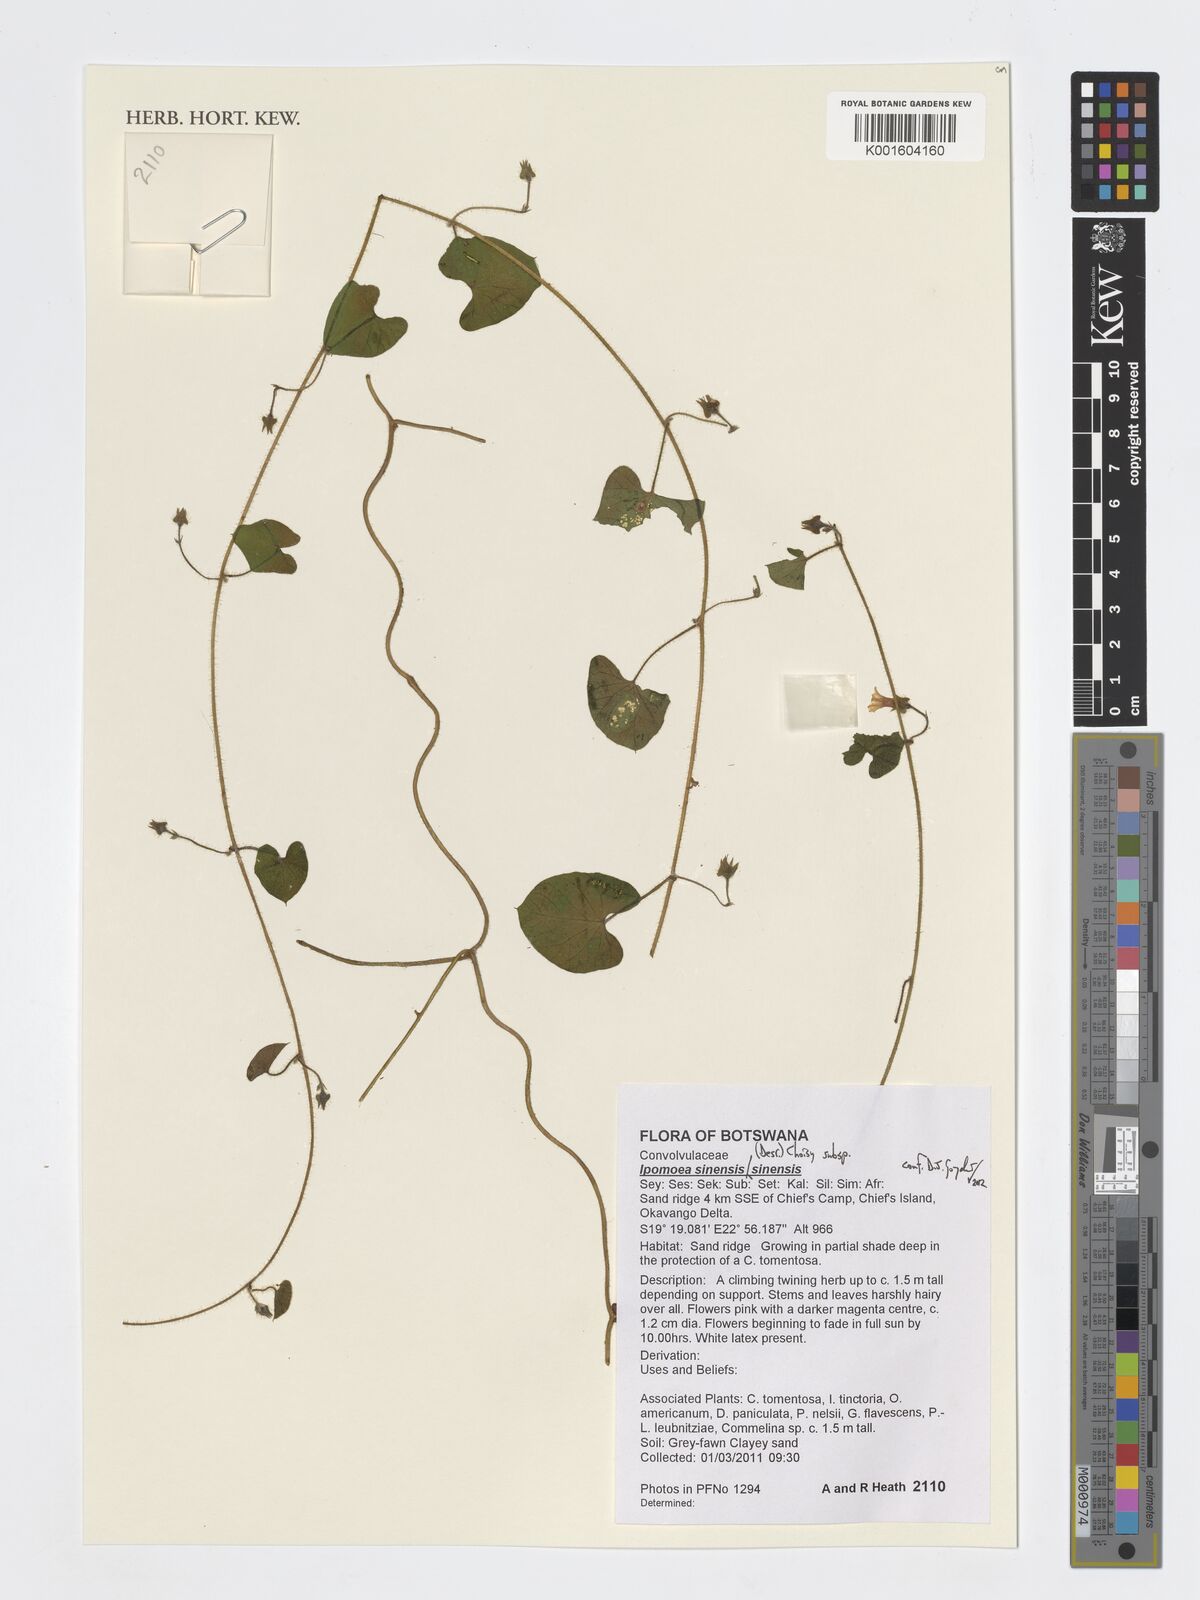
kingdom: Plantae
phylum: Tracheophyta
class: Magnoliopsida
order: Solanales
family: Convolvulaceae
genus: Ipomoea
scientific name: Ipomoea sinensis
